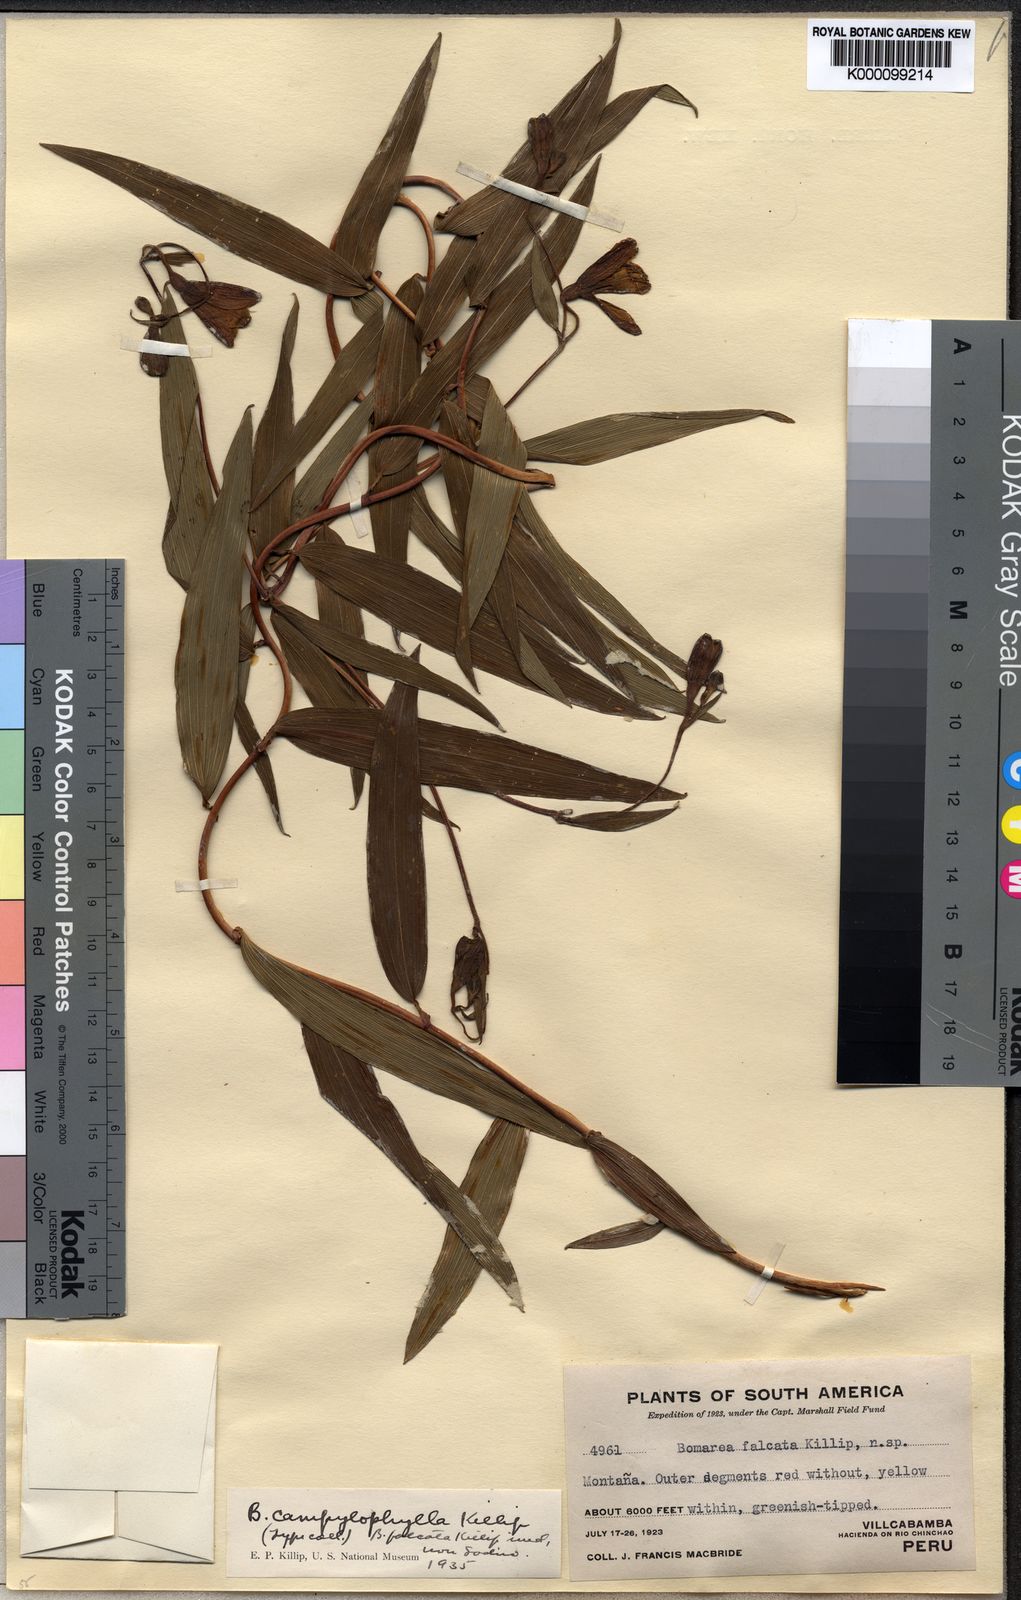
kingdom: Plantae
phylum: Tracheophyta
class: Liliopsida
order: Liliales
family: Alstroemeriaceae
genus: Bomarea
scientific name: Bomarea campylophylla
